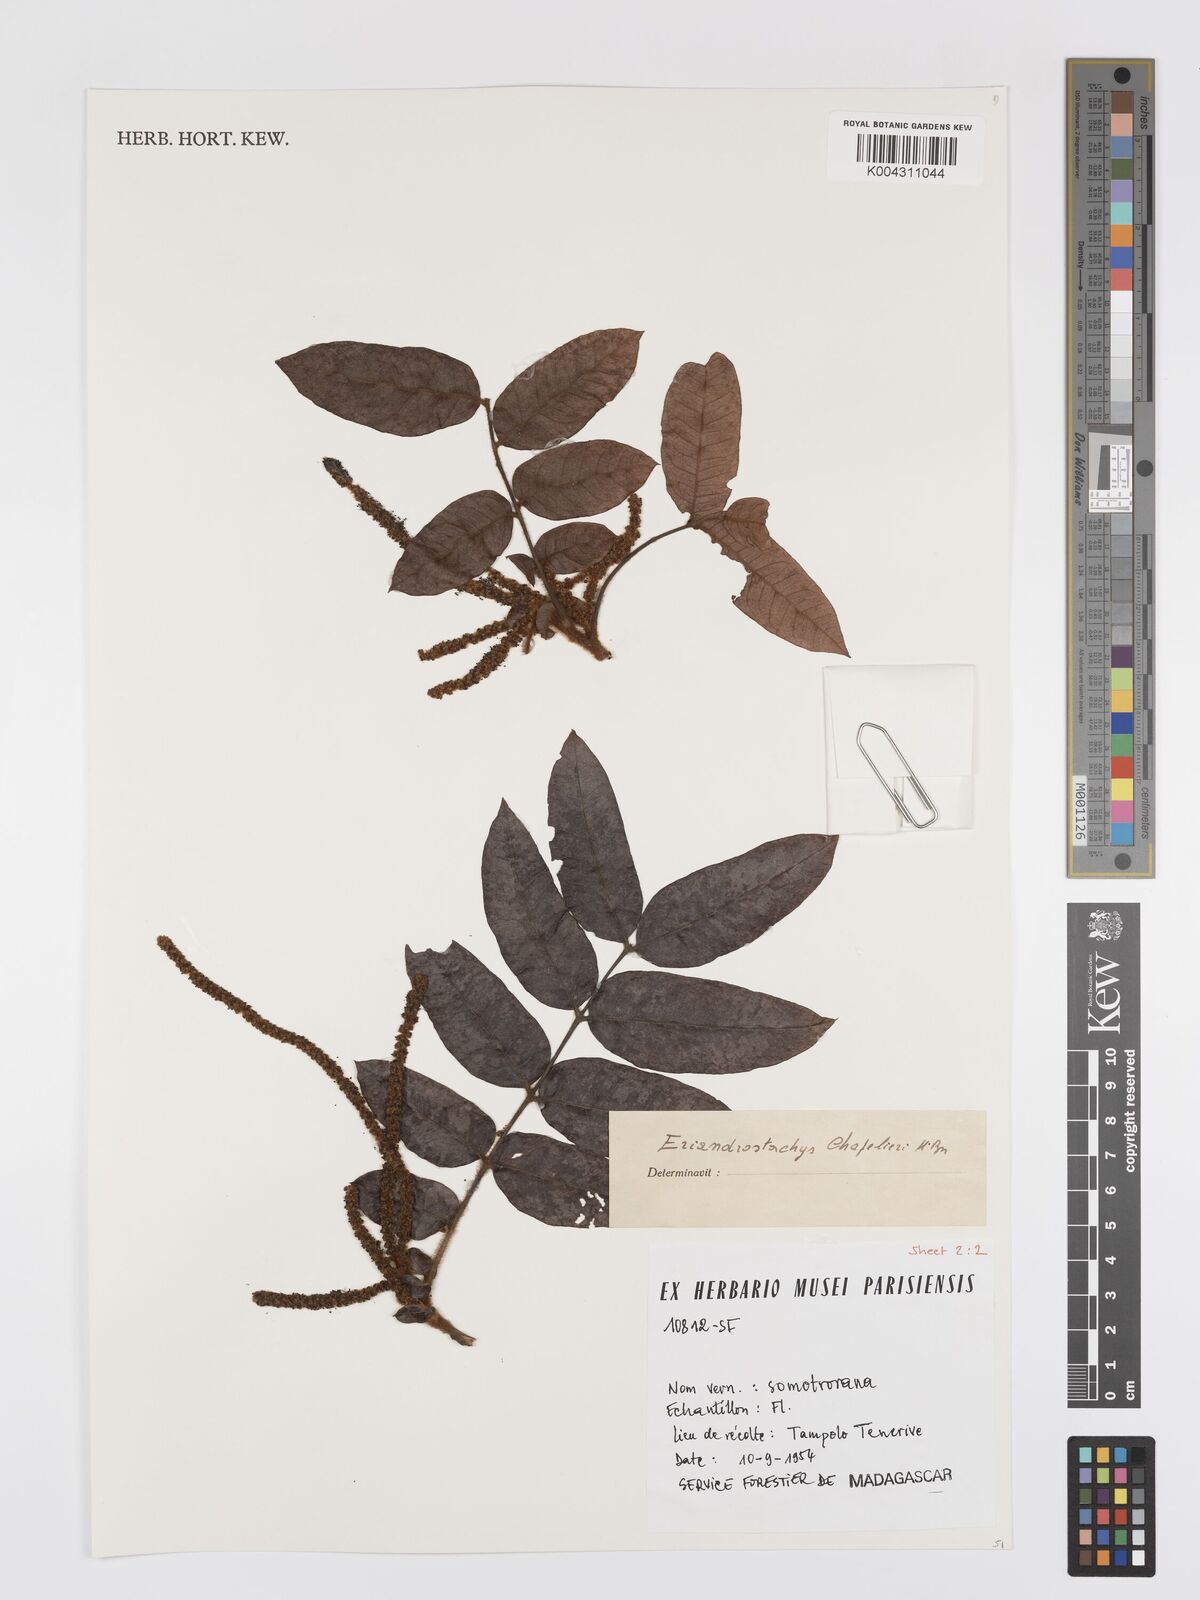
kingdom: Plantae
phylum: Tracheophyta
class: Magnoliopsida
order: Sapindales
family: Sapindaceae
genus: Macphersonia
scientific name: Macphersonia chapelieri
